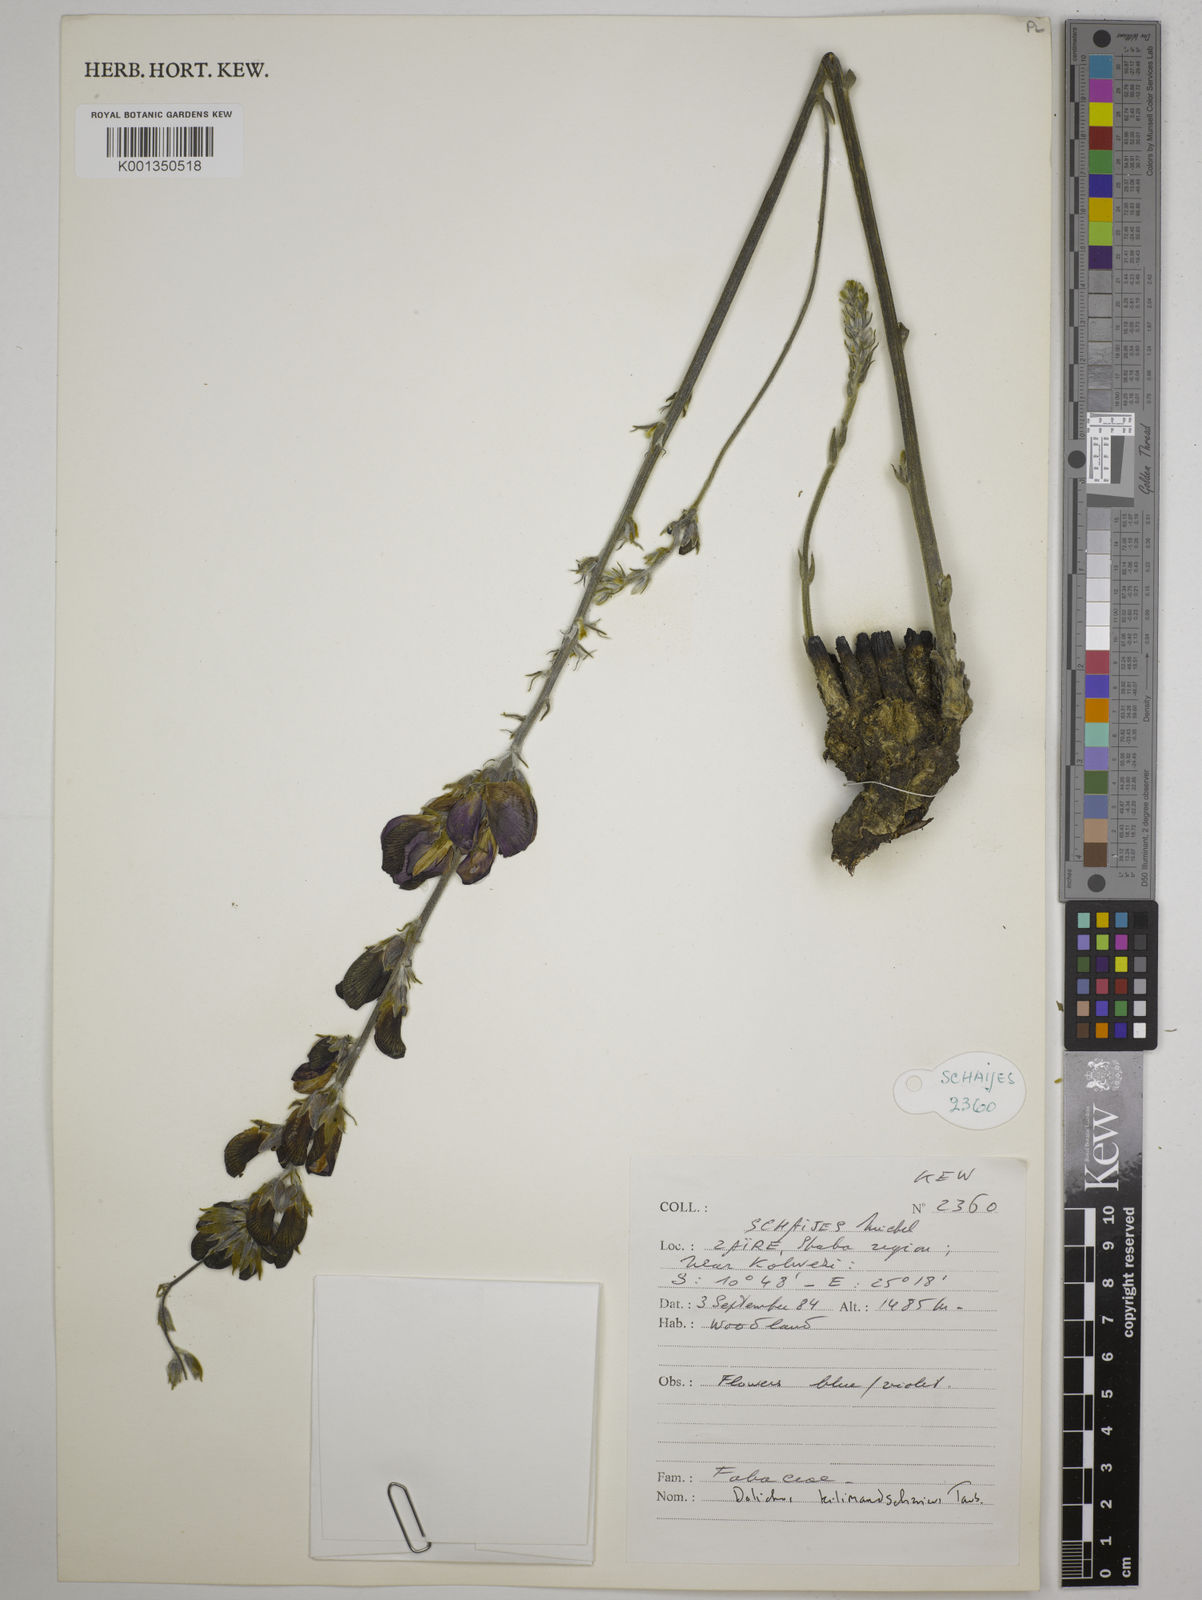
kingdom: Plantae
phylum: Tracheophyta
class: Magnoliopsida
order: Fabales
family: Fabaceae
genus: Dolichos
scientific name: Dolichos kilimandscharicus
